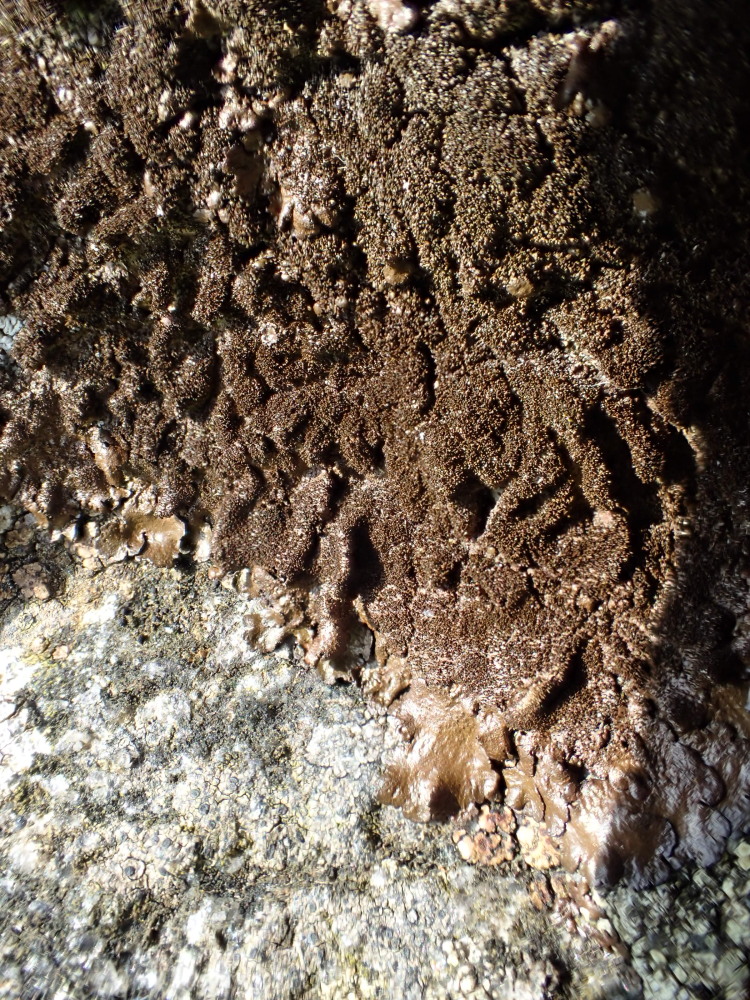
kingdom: Fungi
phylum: Ascomycota
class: Lecanoromycetes
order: Lecanorales
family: Parmeliaceae
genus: Melanelixia
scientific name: Melanelixia fuliginosa
